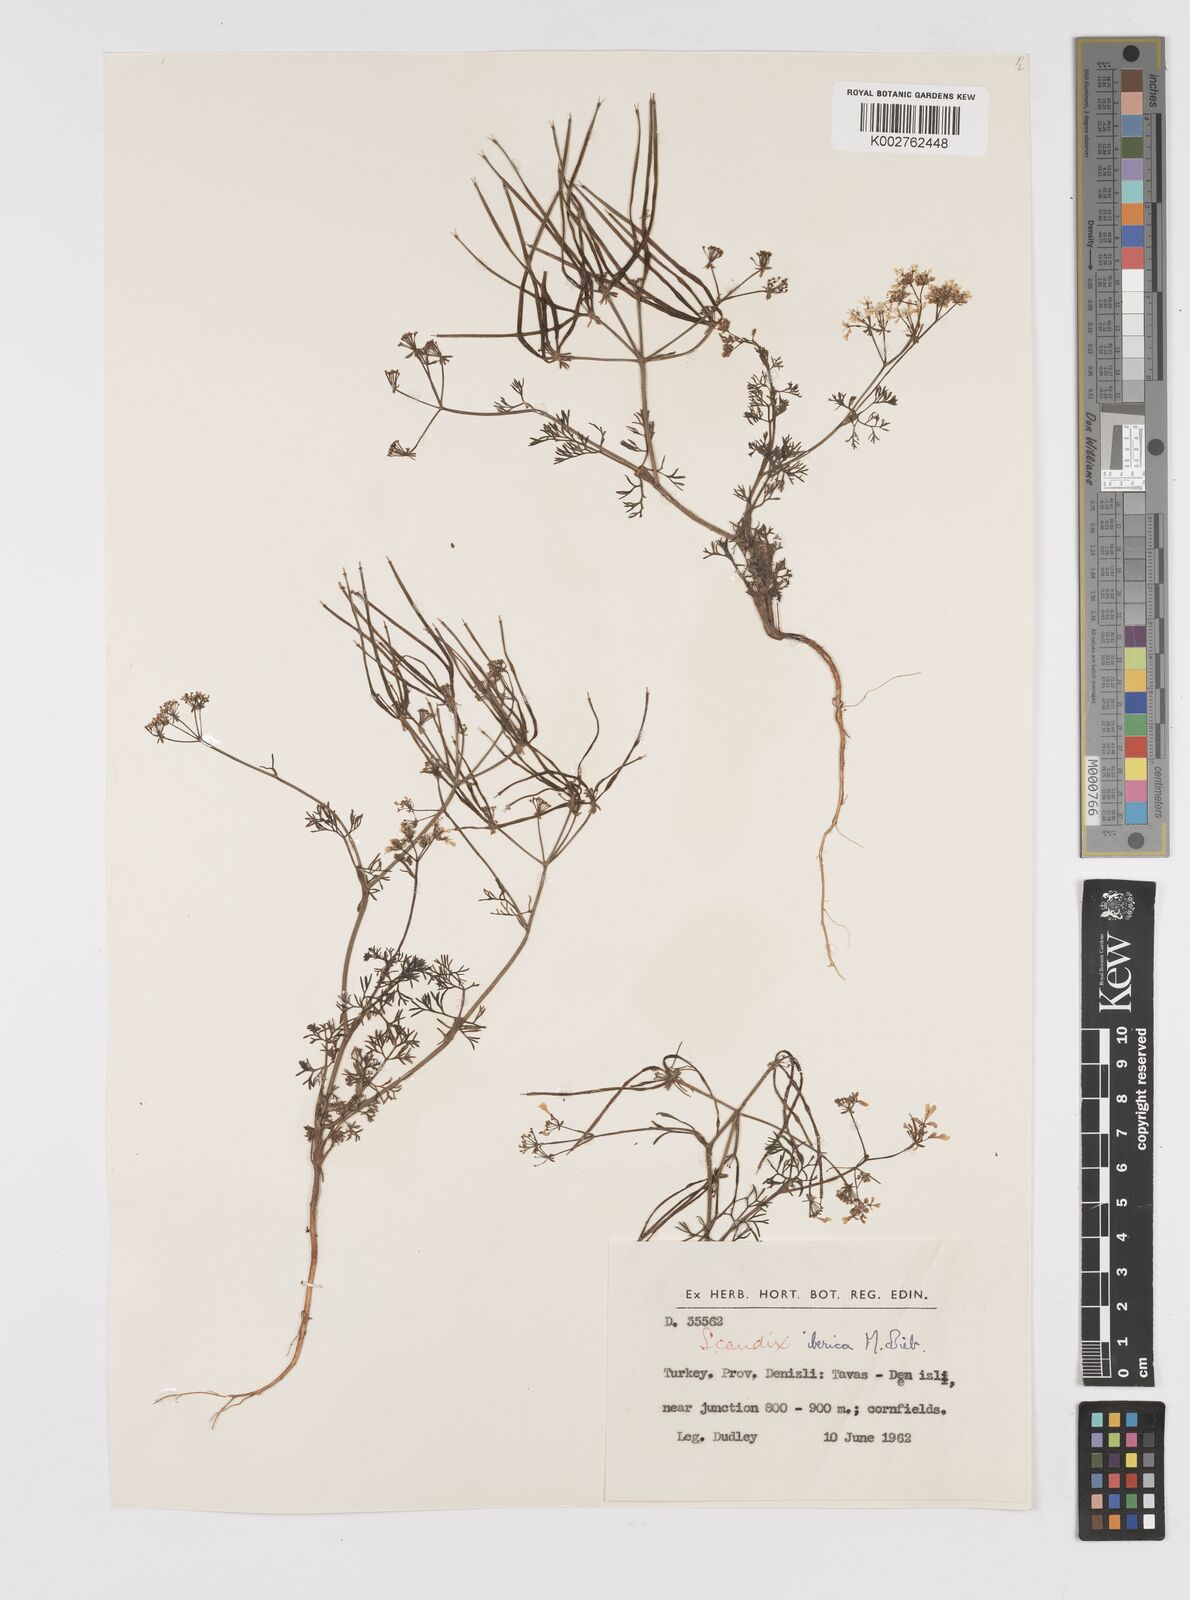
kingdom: Plantae
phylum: Tracheophyta
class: Magnoliopsida
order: Apiales
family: Apiaceae
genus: Scandix
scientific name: Scandix iberica
